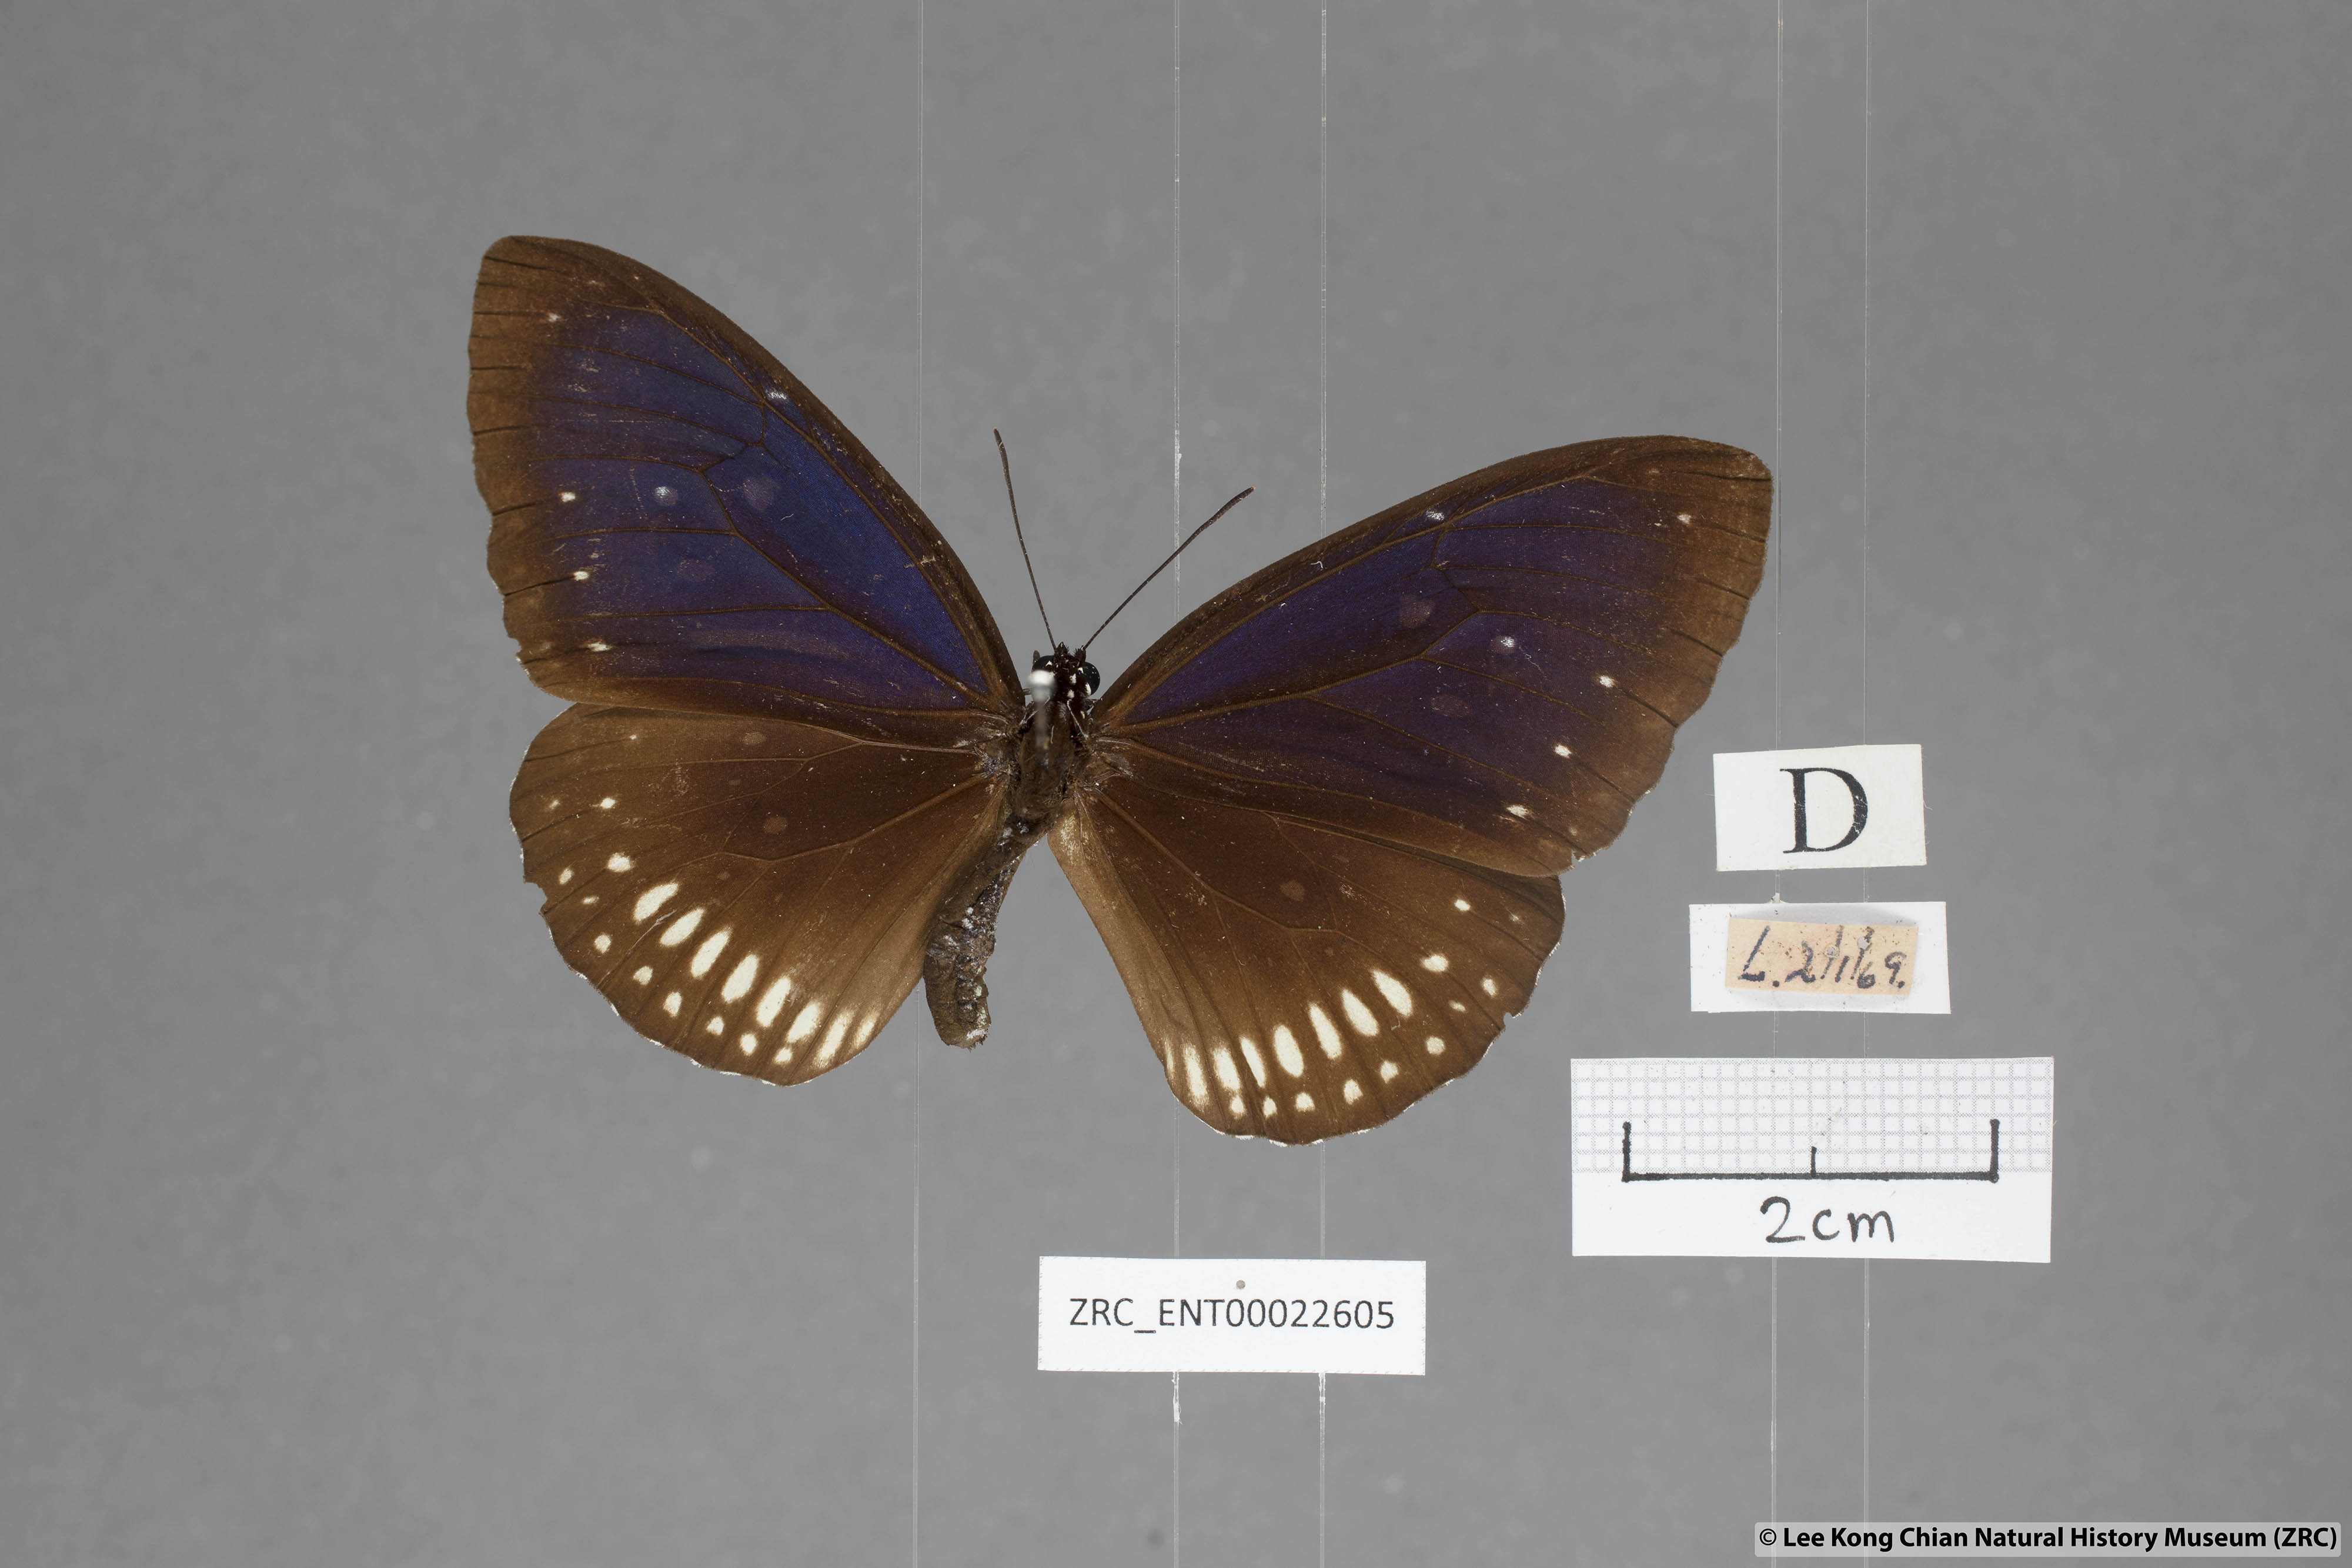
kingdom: Animalia
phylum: Arthropoda
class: Insecta
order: Lepidoptera
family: Nymphalidae
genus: Euploea
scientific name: Euploea modesta
